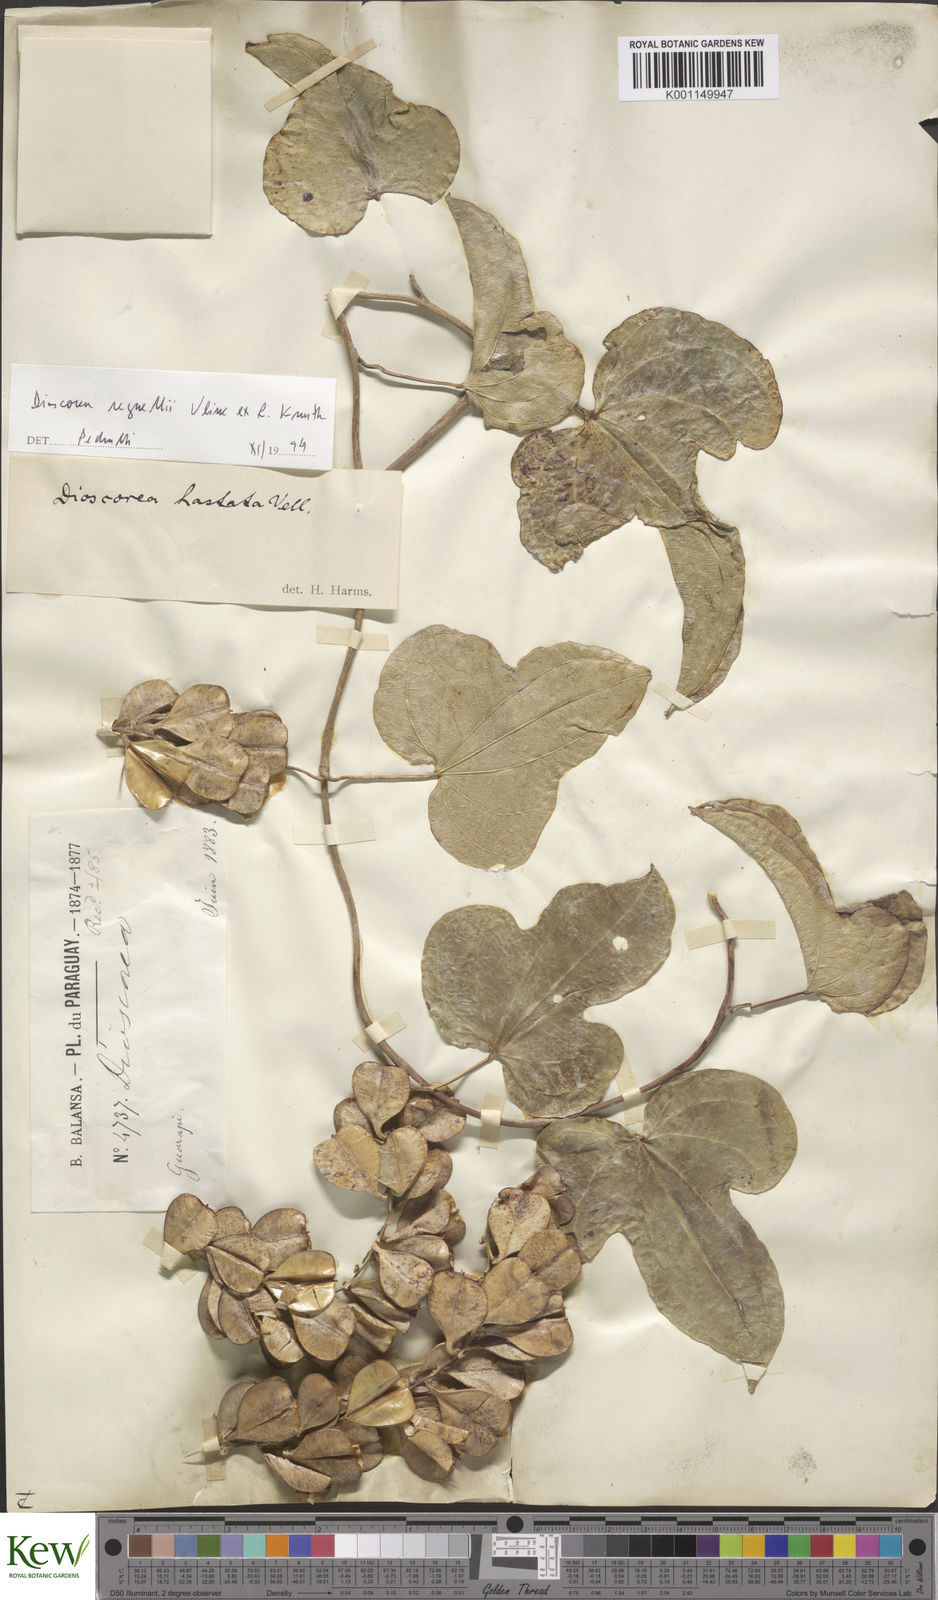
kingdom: Plantae
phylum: Tracheophyta
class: Liliopsida
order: Dioscoreales
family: Dioscoreaceae
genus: Dioscorea
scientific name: Dioscorea hastata
